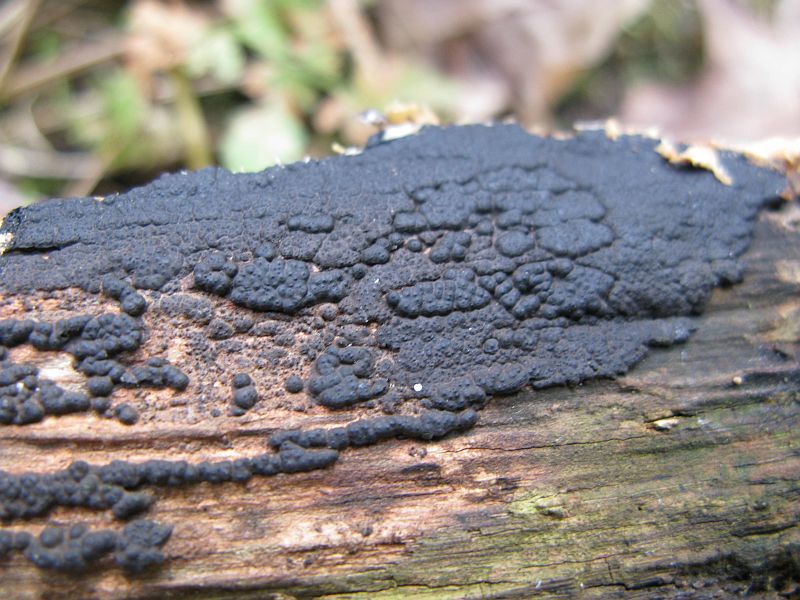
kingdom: Fungi
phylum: Ascomycota
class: Sordariomycetes
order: Xylariales
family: Xylariaceae
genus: Nemania
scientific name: Nemania serpens
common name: almindelig kuldyne
